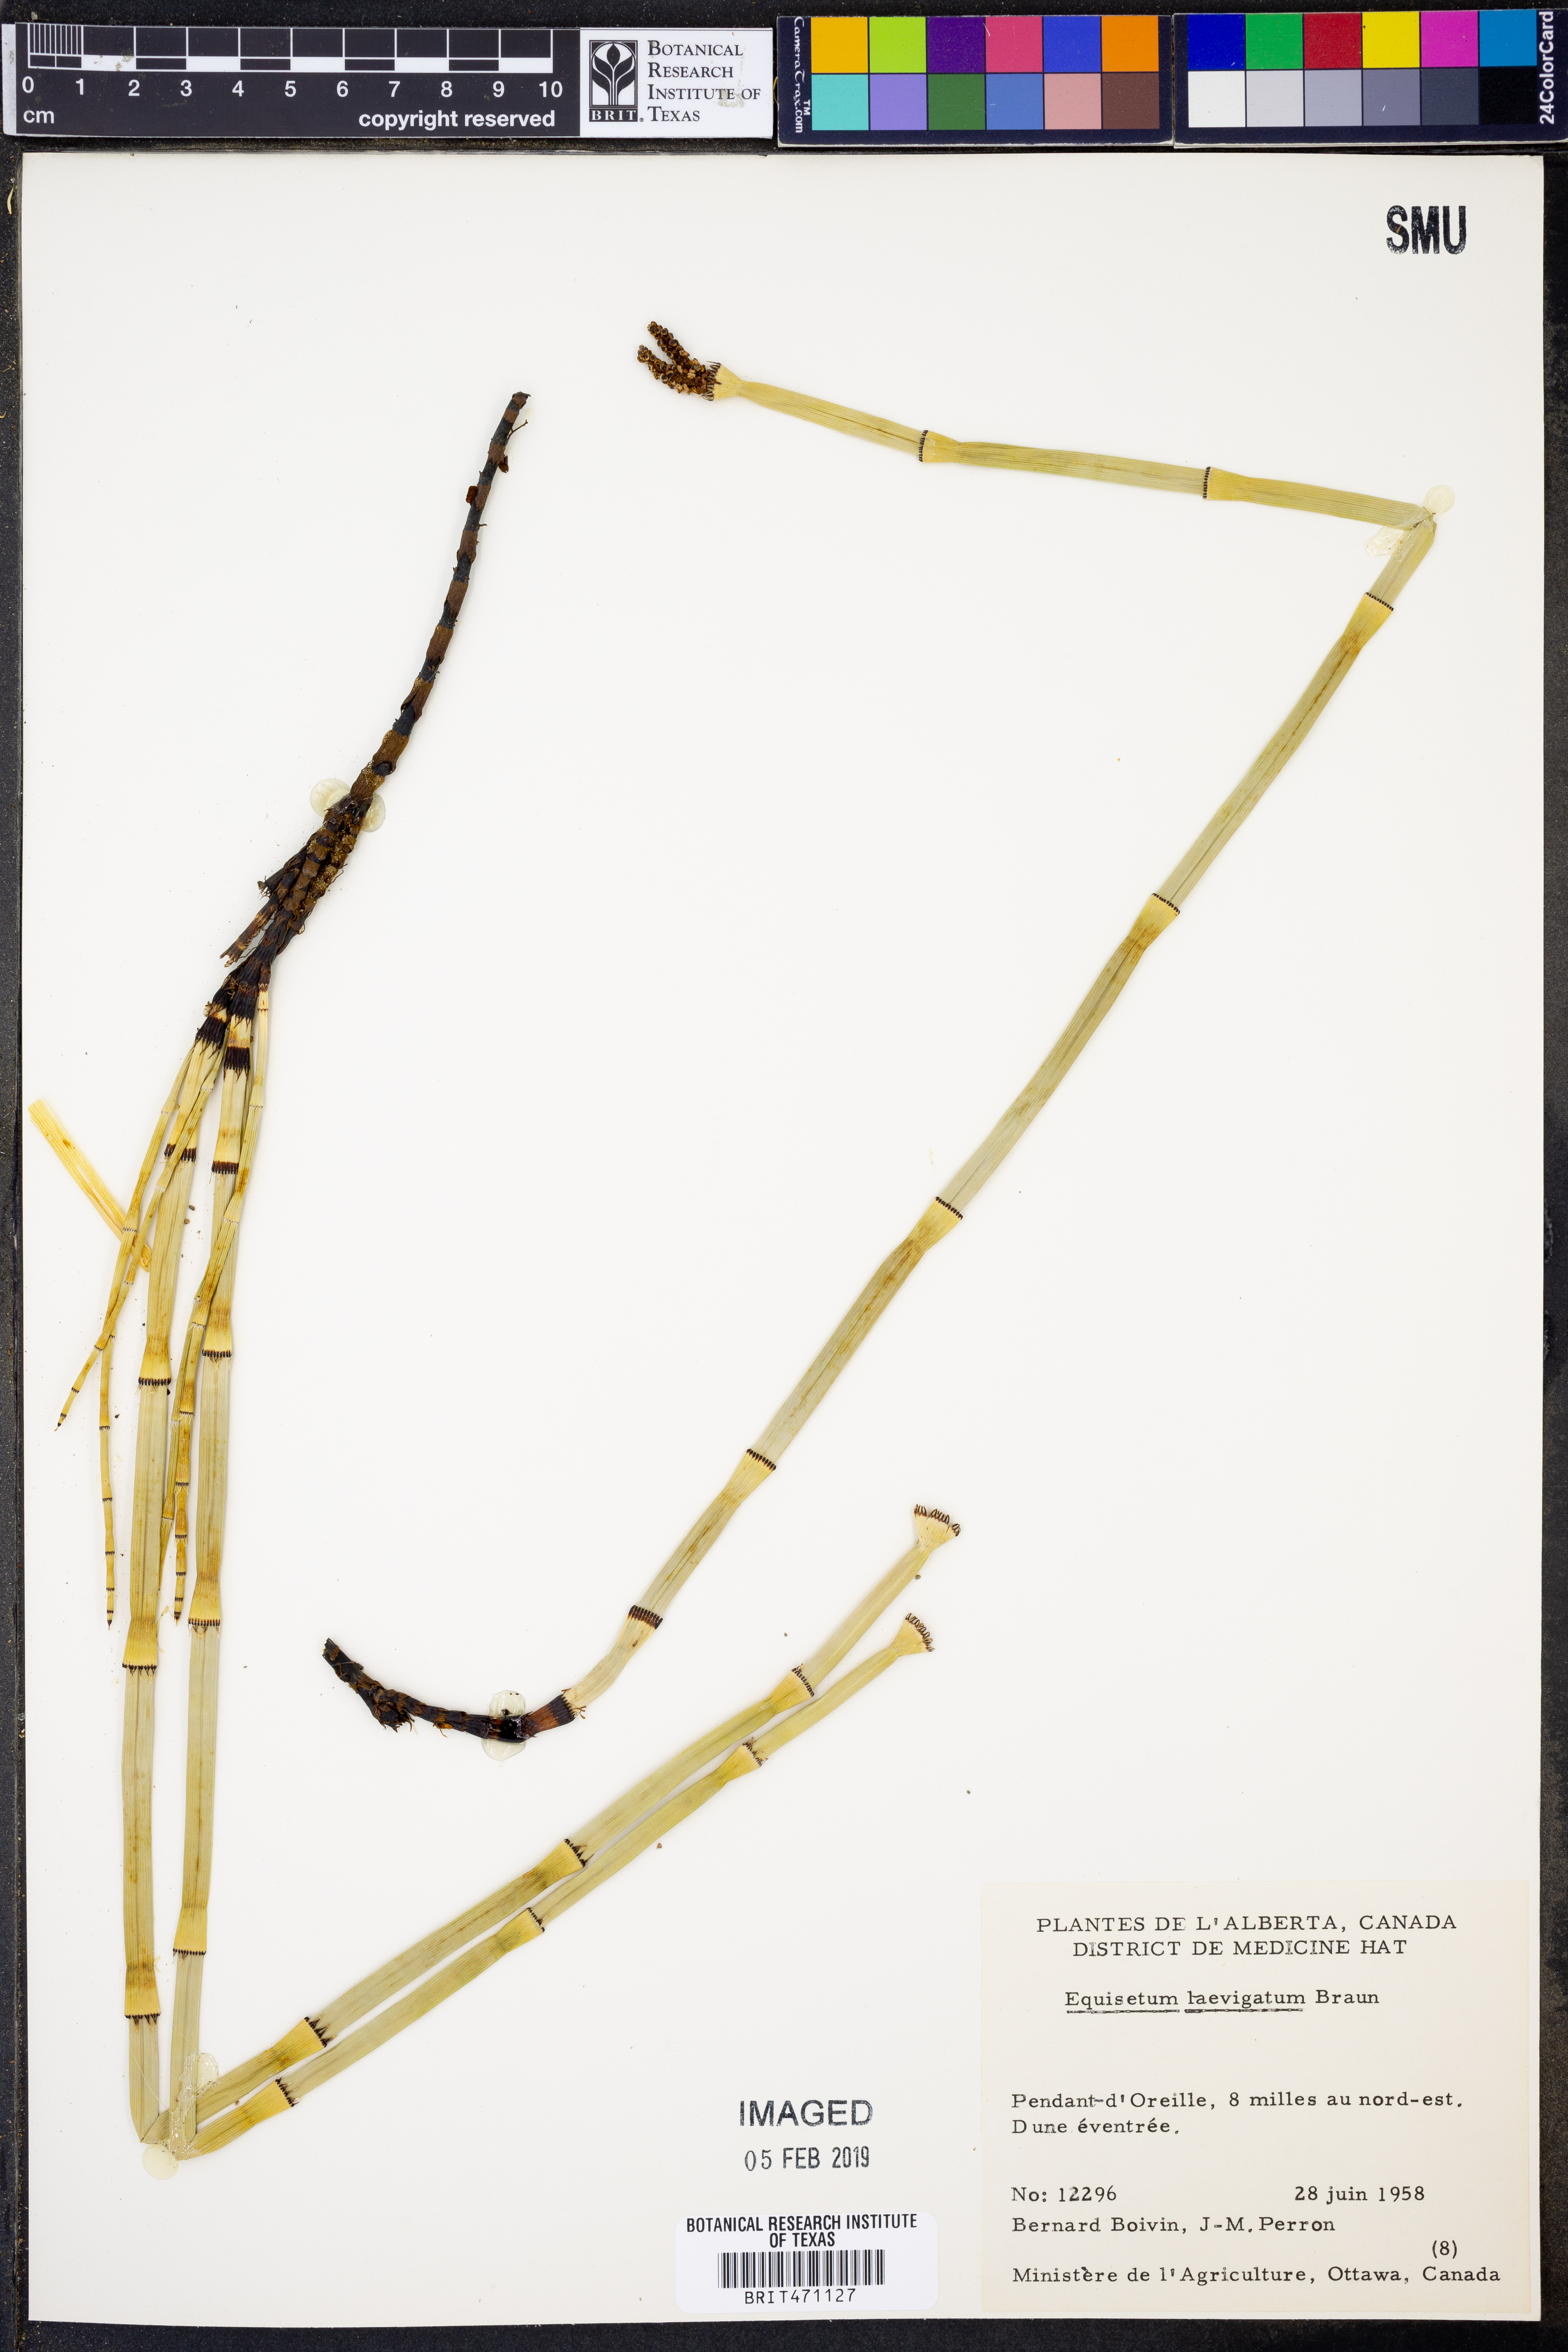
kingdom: Plantae
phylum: Tracheophyta
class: Polypodiopsida
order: Equisetales
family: Equisetaceae
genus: Equisetum
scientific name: Equisetum laevigatum
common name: Smooth scouring-rush
